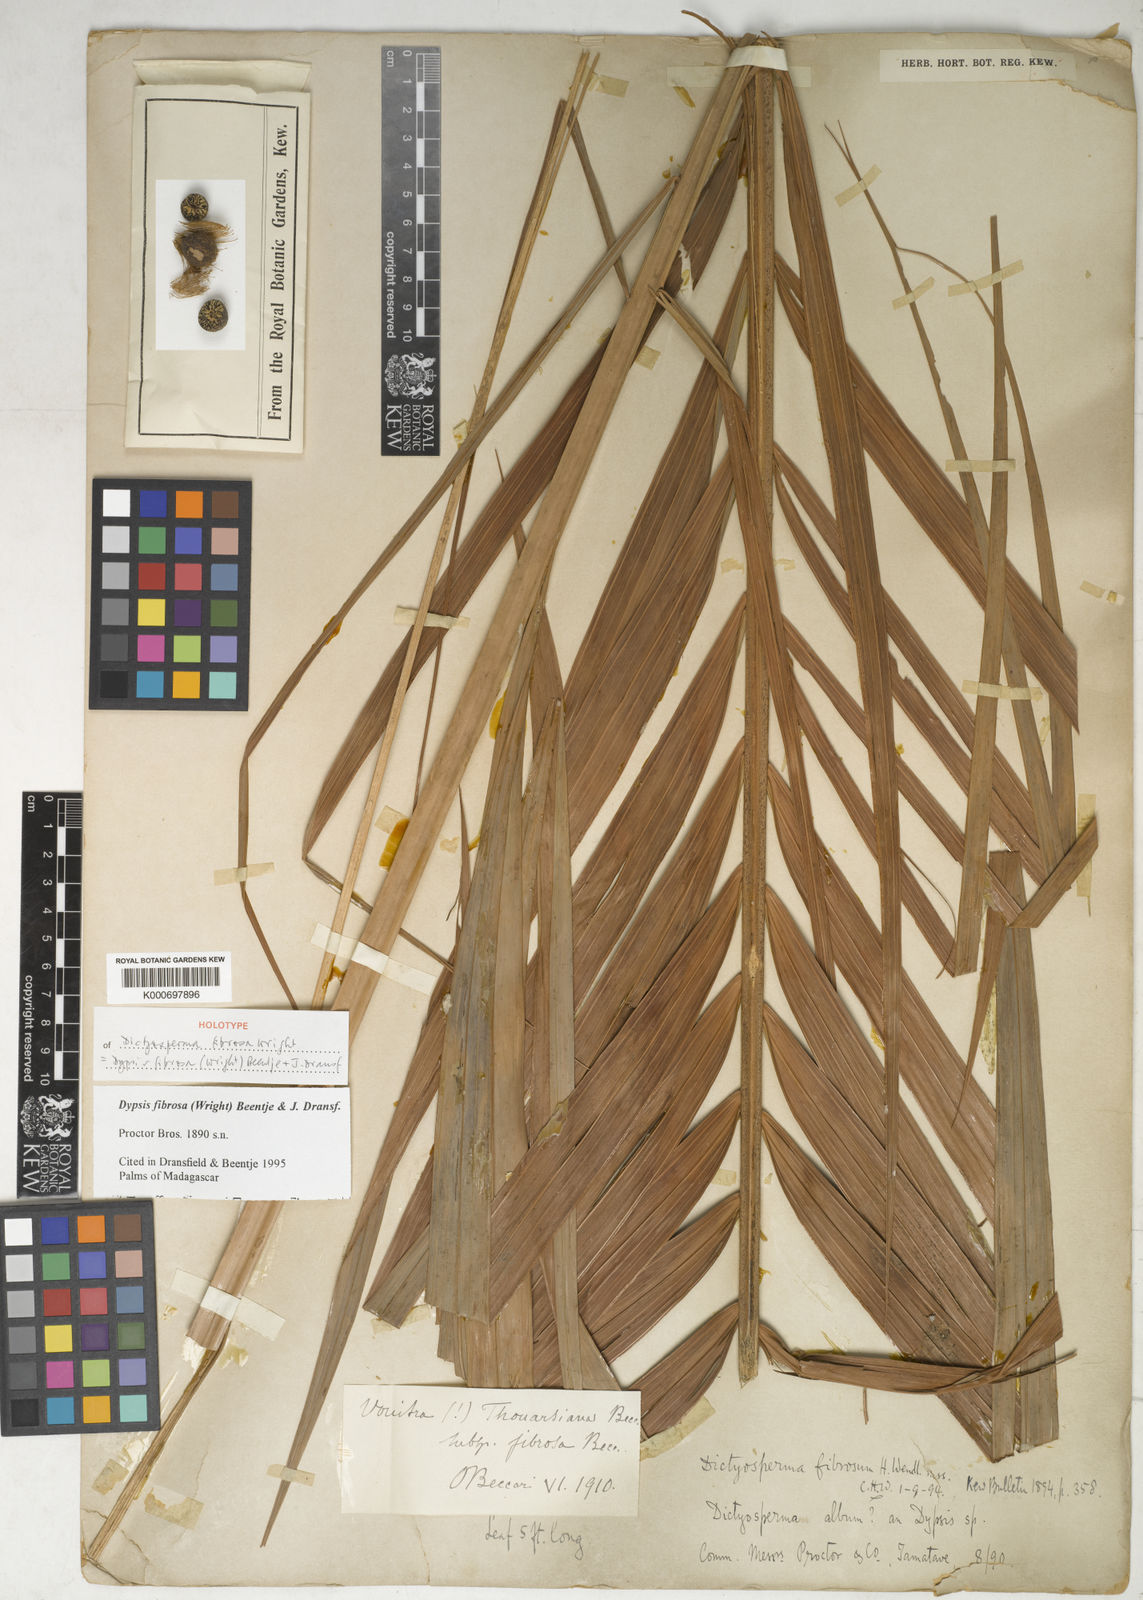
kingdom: Plantae
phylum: Tracheophyta
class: Liliopsida
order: Arecales
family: Arecaceae
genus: Dypsis
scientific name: Dypsis fibrosa
